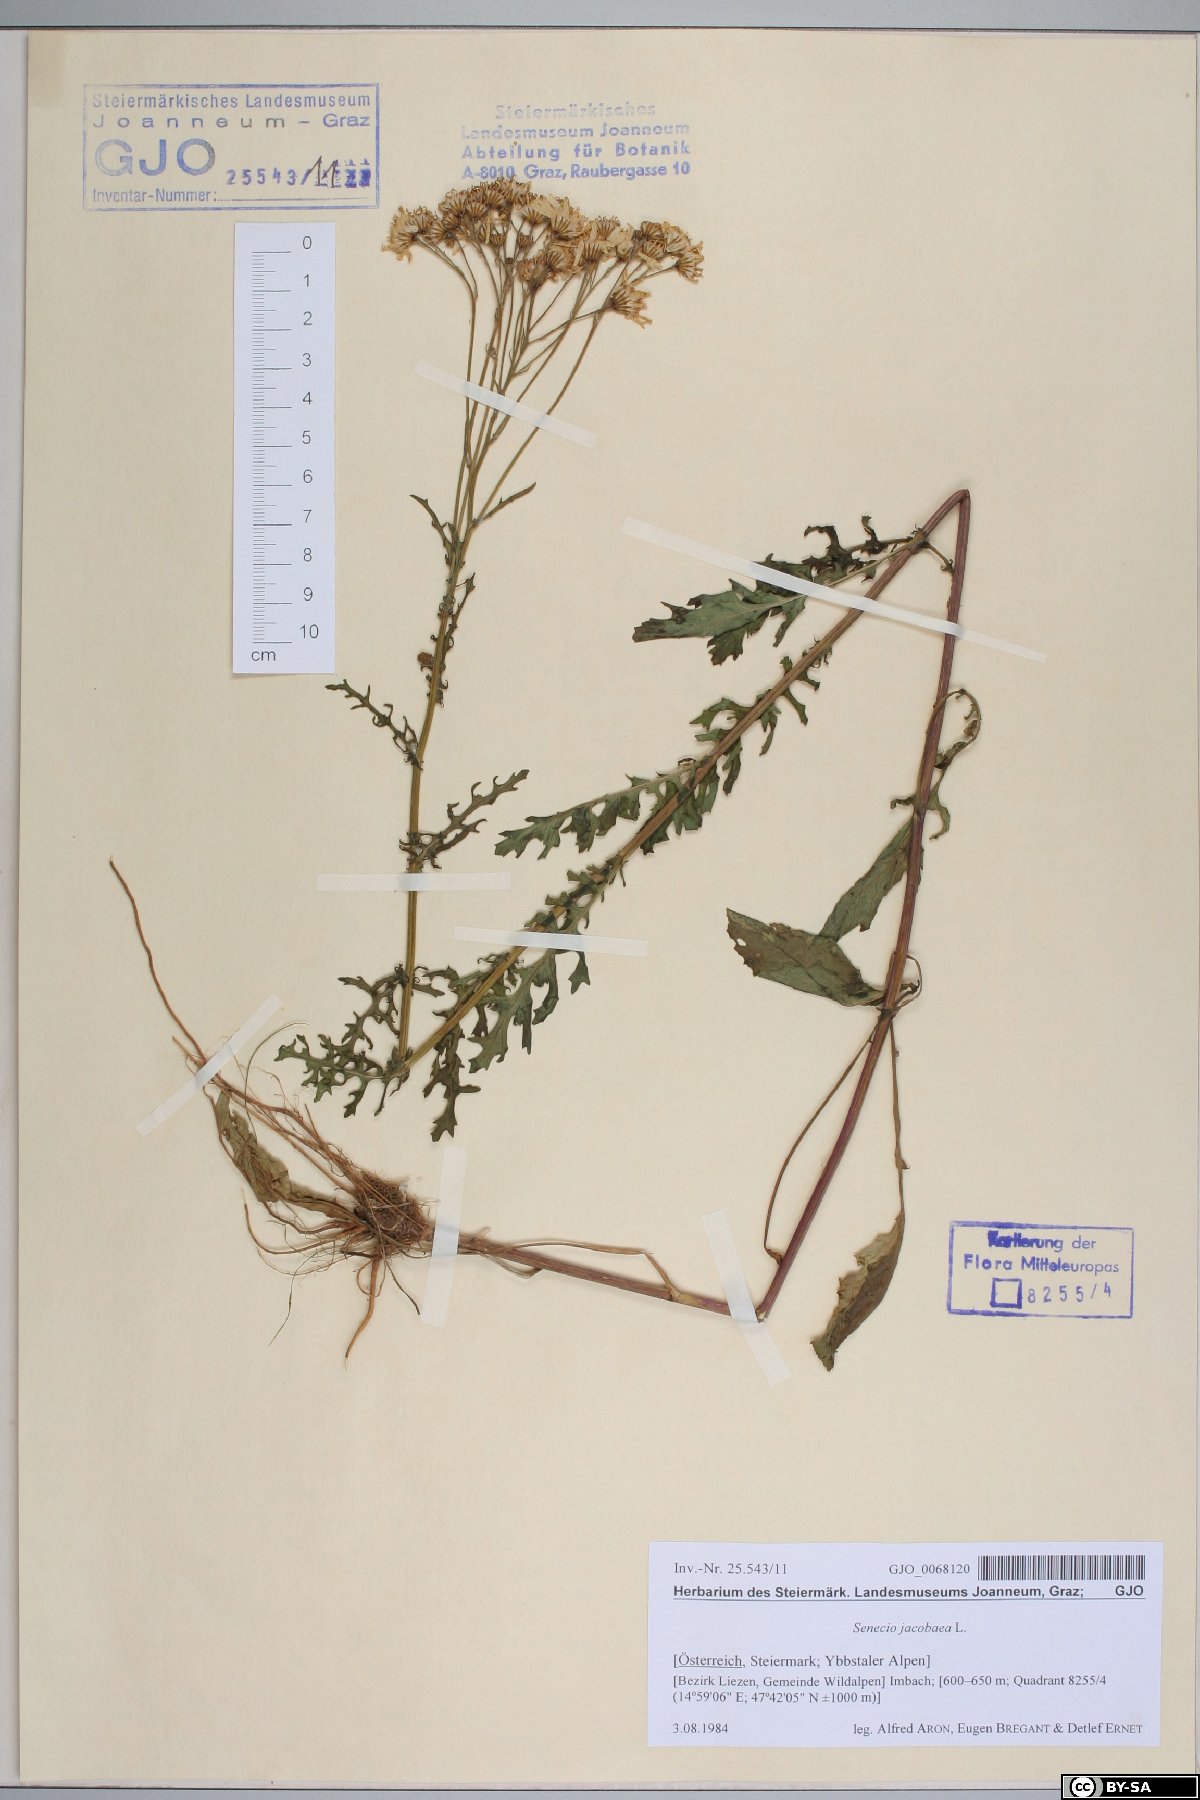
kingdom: Plantae
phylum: Tracheophyta
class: Magnoliopsida
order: Asterales
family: Asteraceae
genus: Jacobaea
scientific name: Jacobaea vulgaris
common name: Stinking willie
